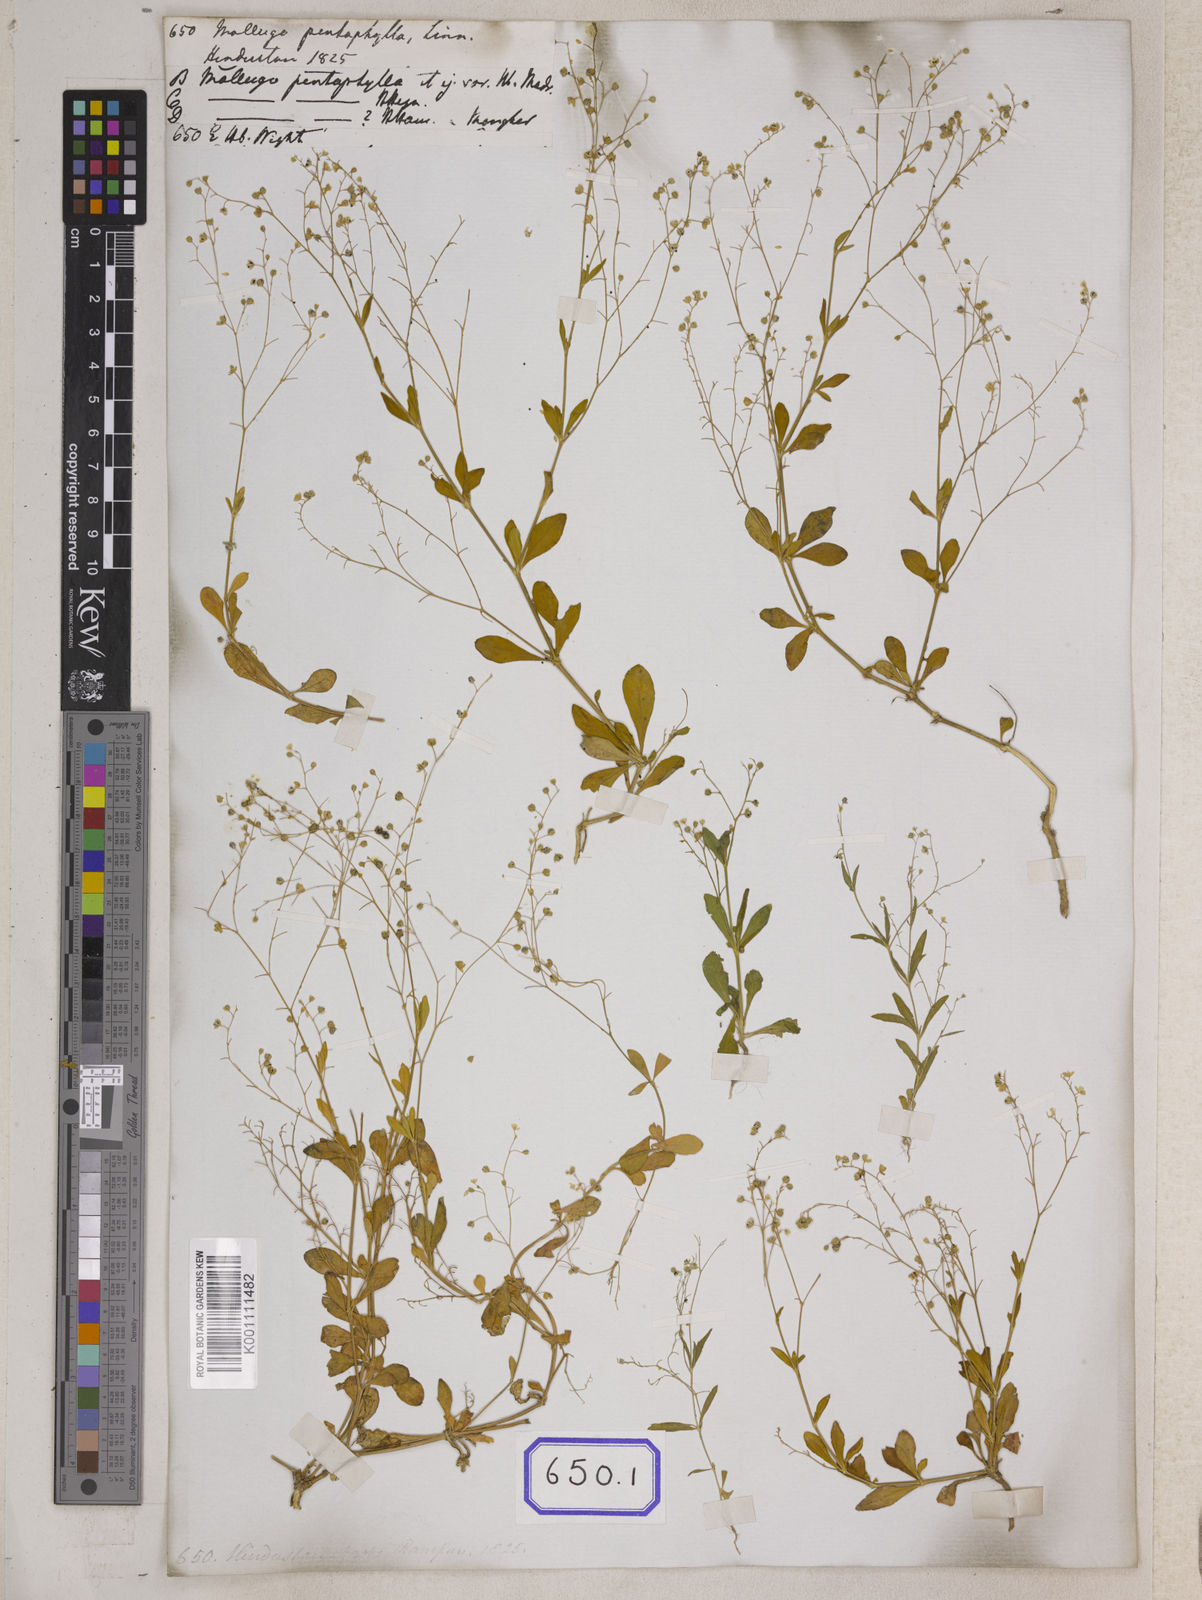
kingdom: Plantae
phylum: Tracheophyta
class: Magnoliopsida
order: Caryophyllales
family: Molluginaceae
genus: Trigastrotheca
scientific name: Trigastrotheca pentaphylla
